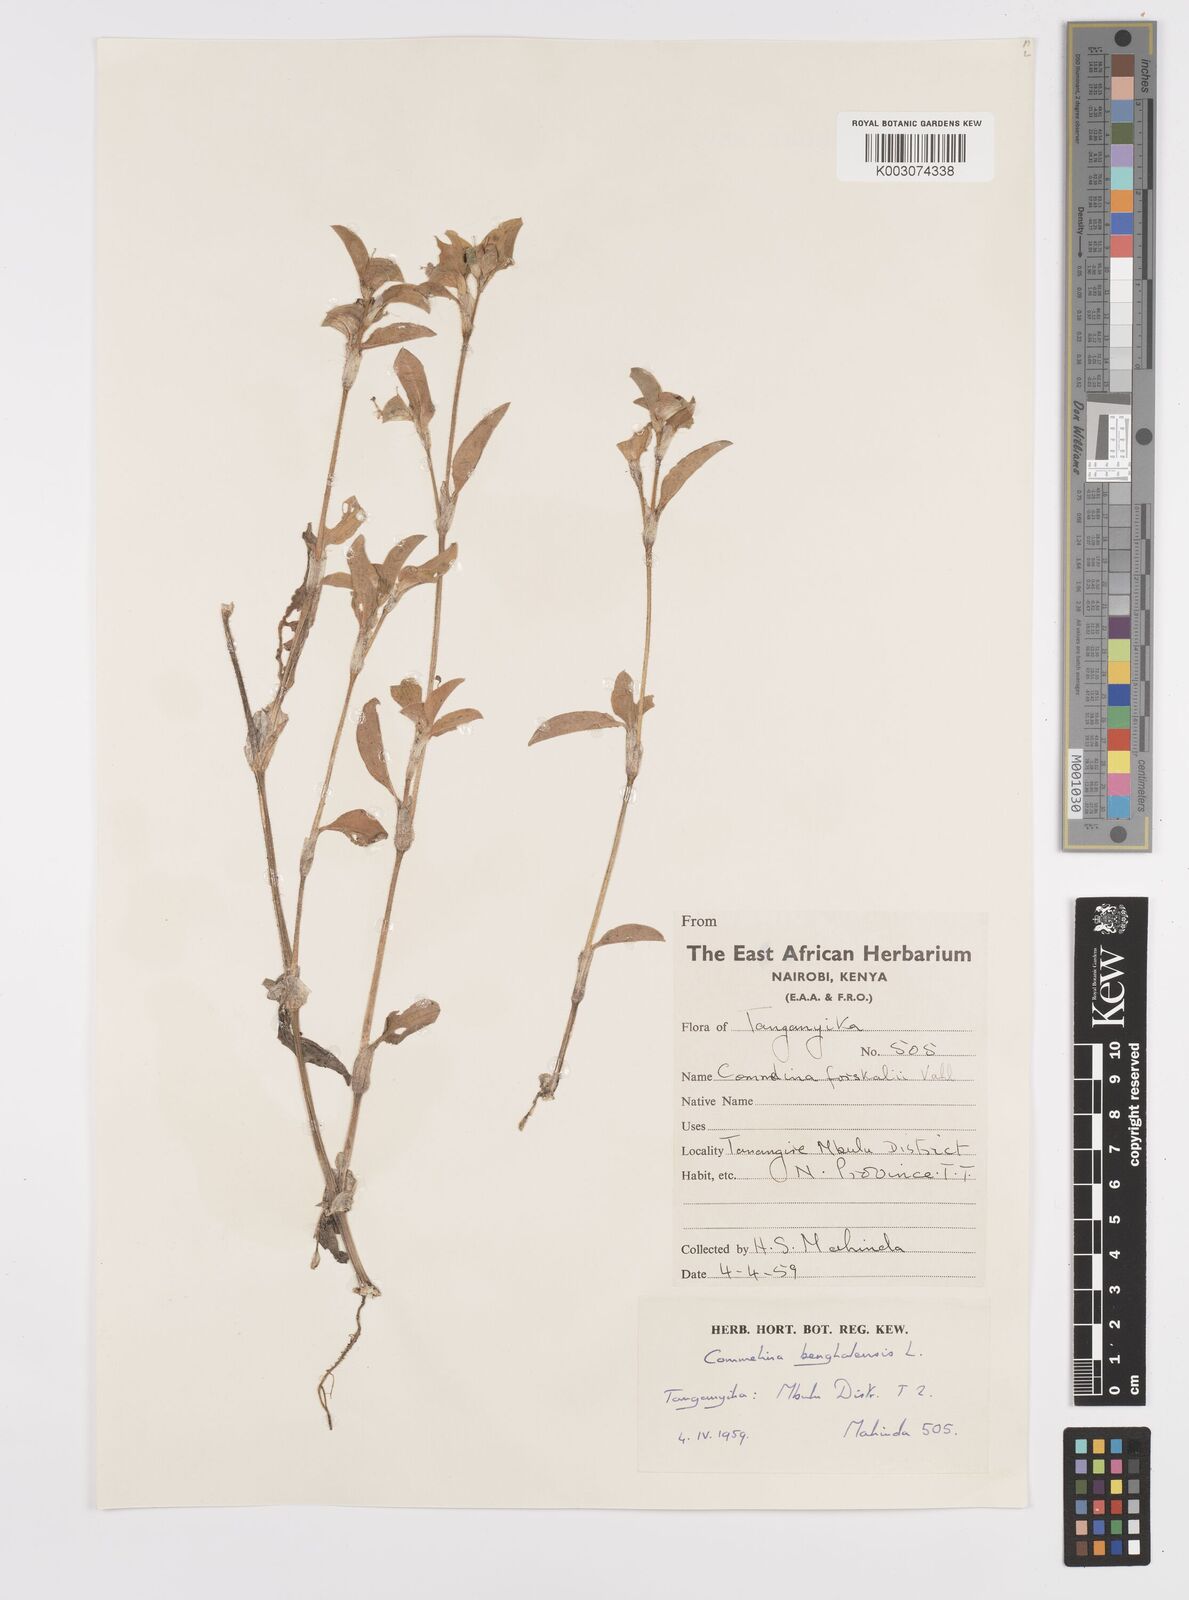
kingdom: Plantae
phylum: Tracheophyta
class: Liliopsida
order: Commelinales
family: Commelinaceae
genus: Commelina
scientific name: Commelina benghalensis
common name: Jio
